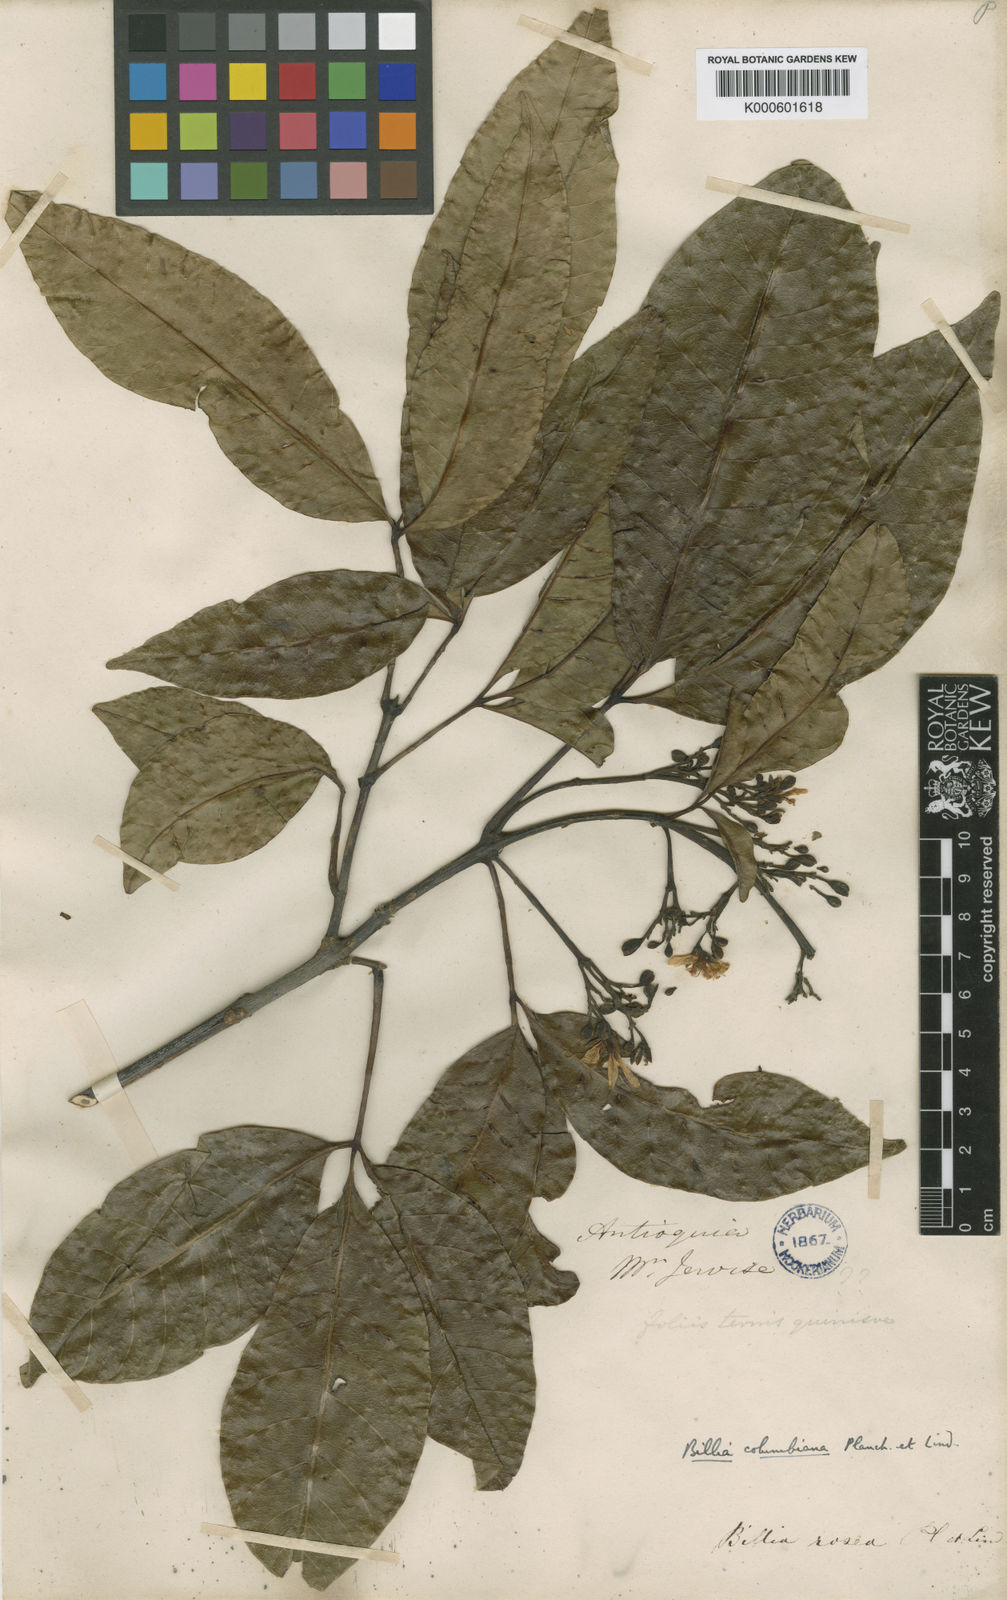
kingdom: Plantae
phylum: Tracheophyta
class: Magnoliopsida
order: Sapindales
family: Sapindaceae
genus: Billia
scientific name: Billia
